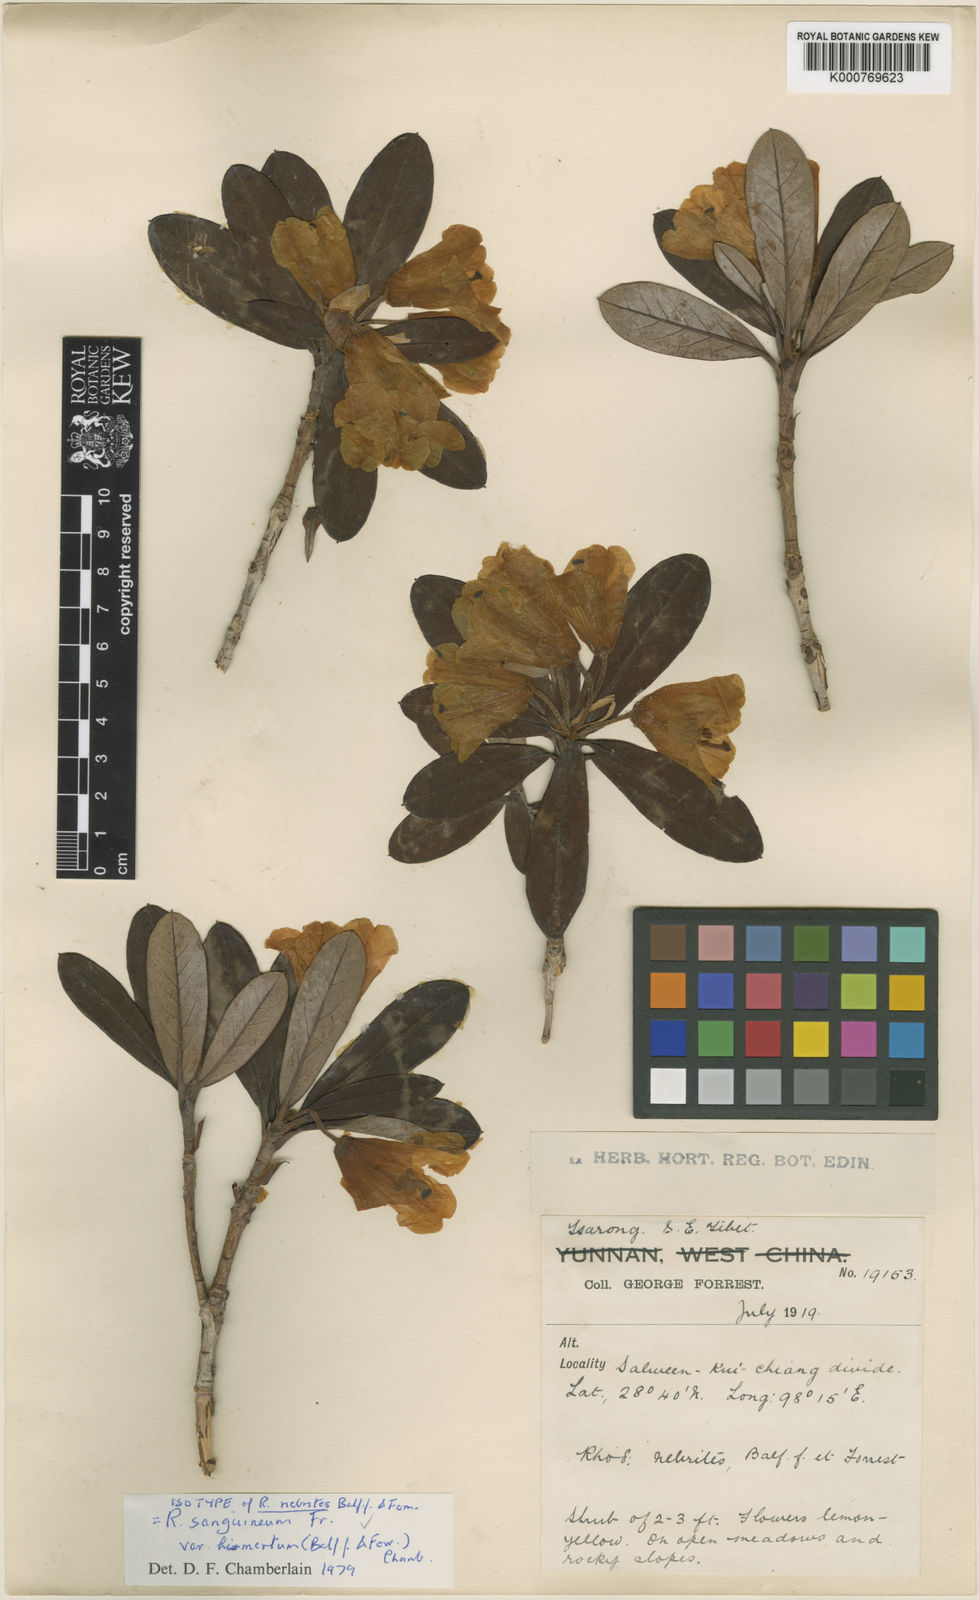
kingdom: Plantae
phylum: Tracheophyta
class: Magnoliopsida
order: Ericales
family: Ericaceae
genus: Rhododendron
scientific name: Rhododendron sanguineum
